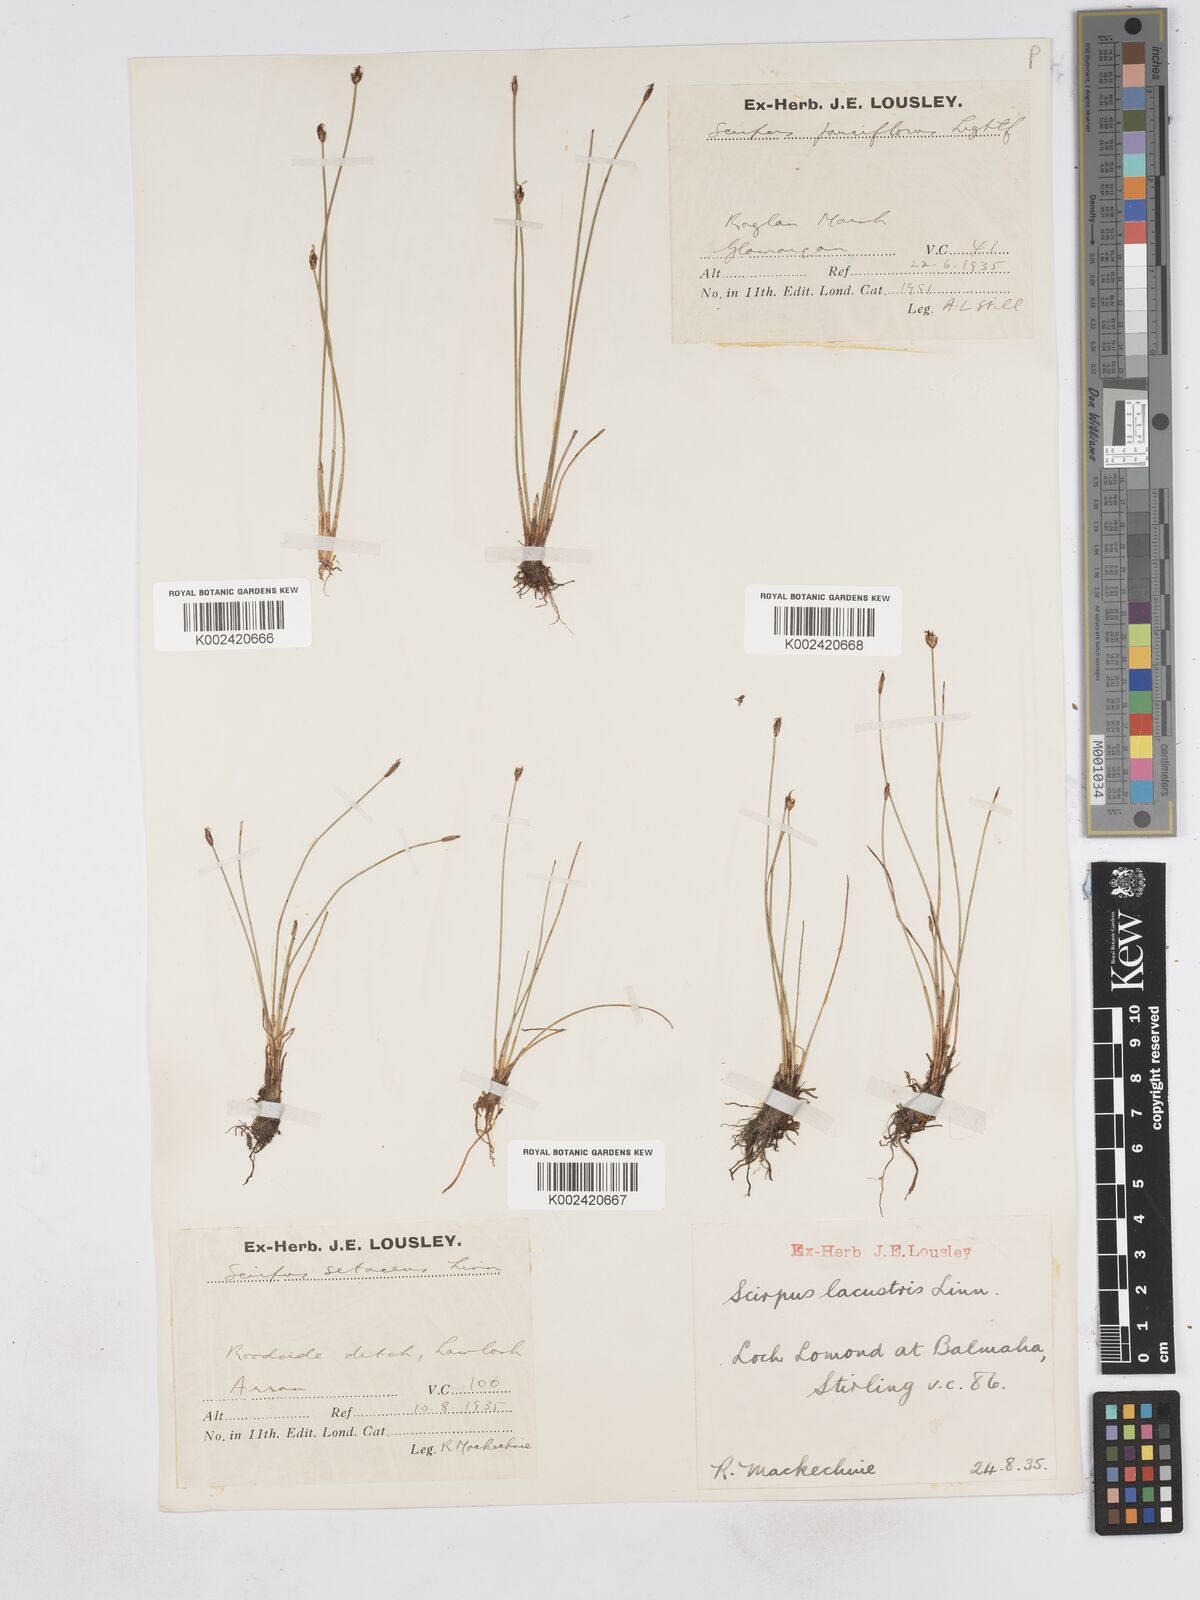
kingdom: Plantae
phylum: Tracheophyta
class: Liliopsida
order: Poales
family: Cyperaceae
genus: Eleocharis
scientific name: Eleocharis quinqueflora
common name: Few-flowered spike-rush
